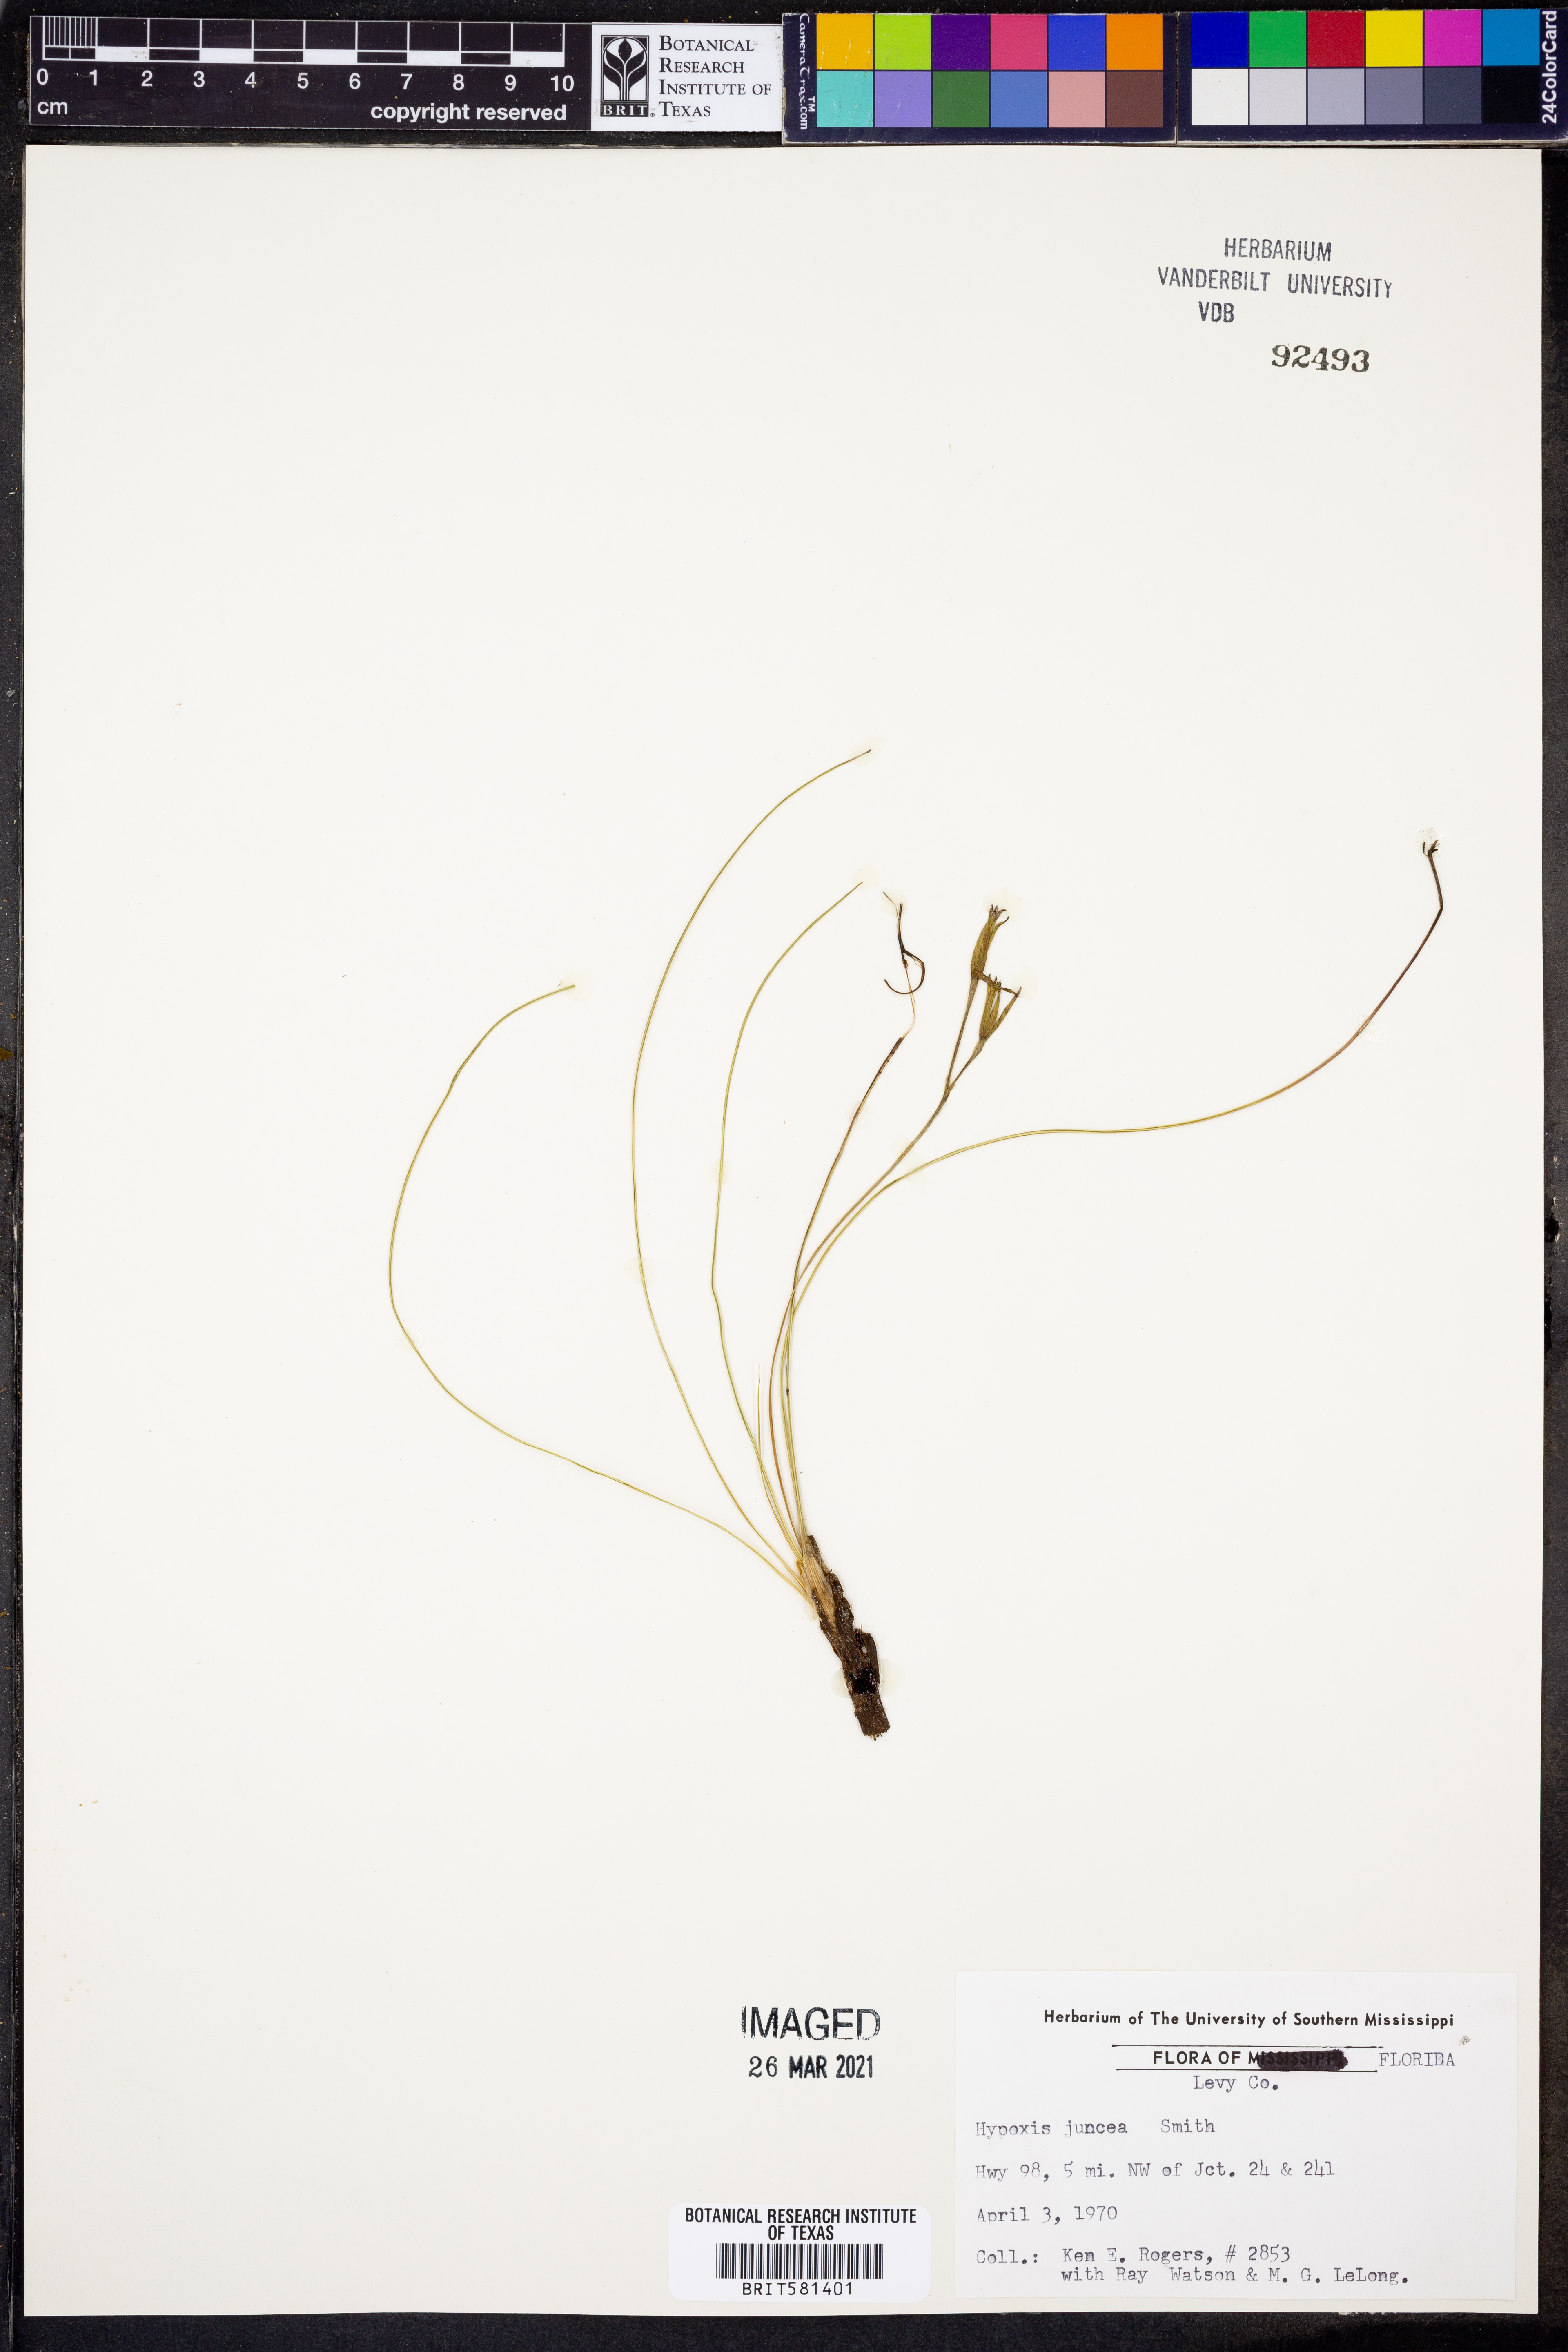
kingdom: Plantae
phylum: Tracheophyta
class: Liliopsida
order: Asparagales
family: Hypoxidaceae
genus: Hypoxis
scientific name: Hypoxis juncea
